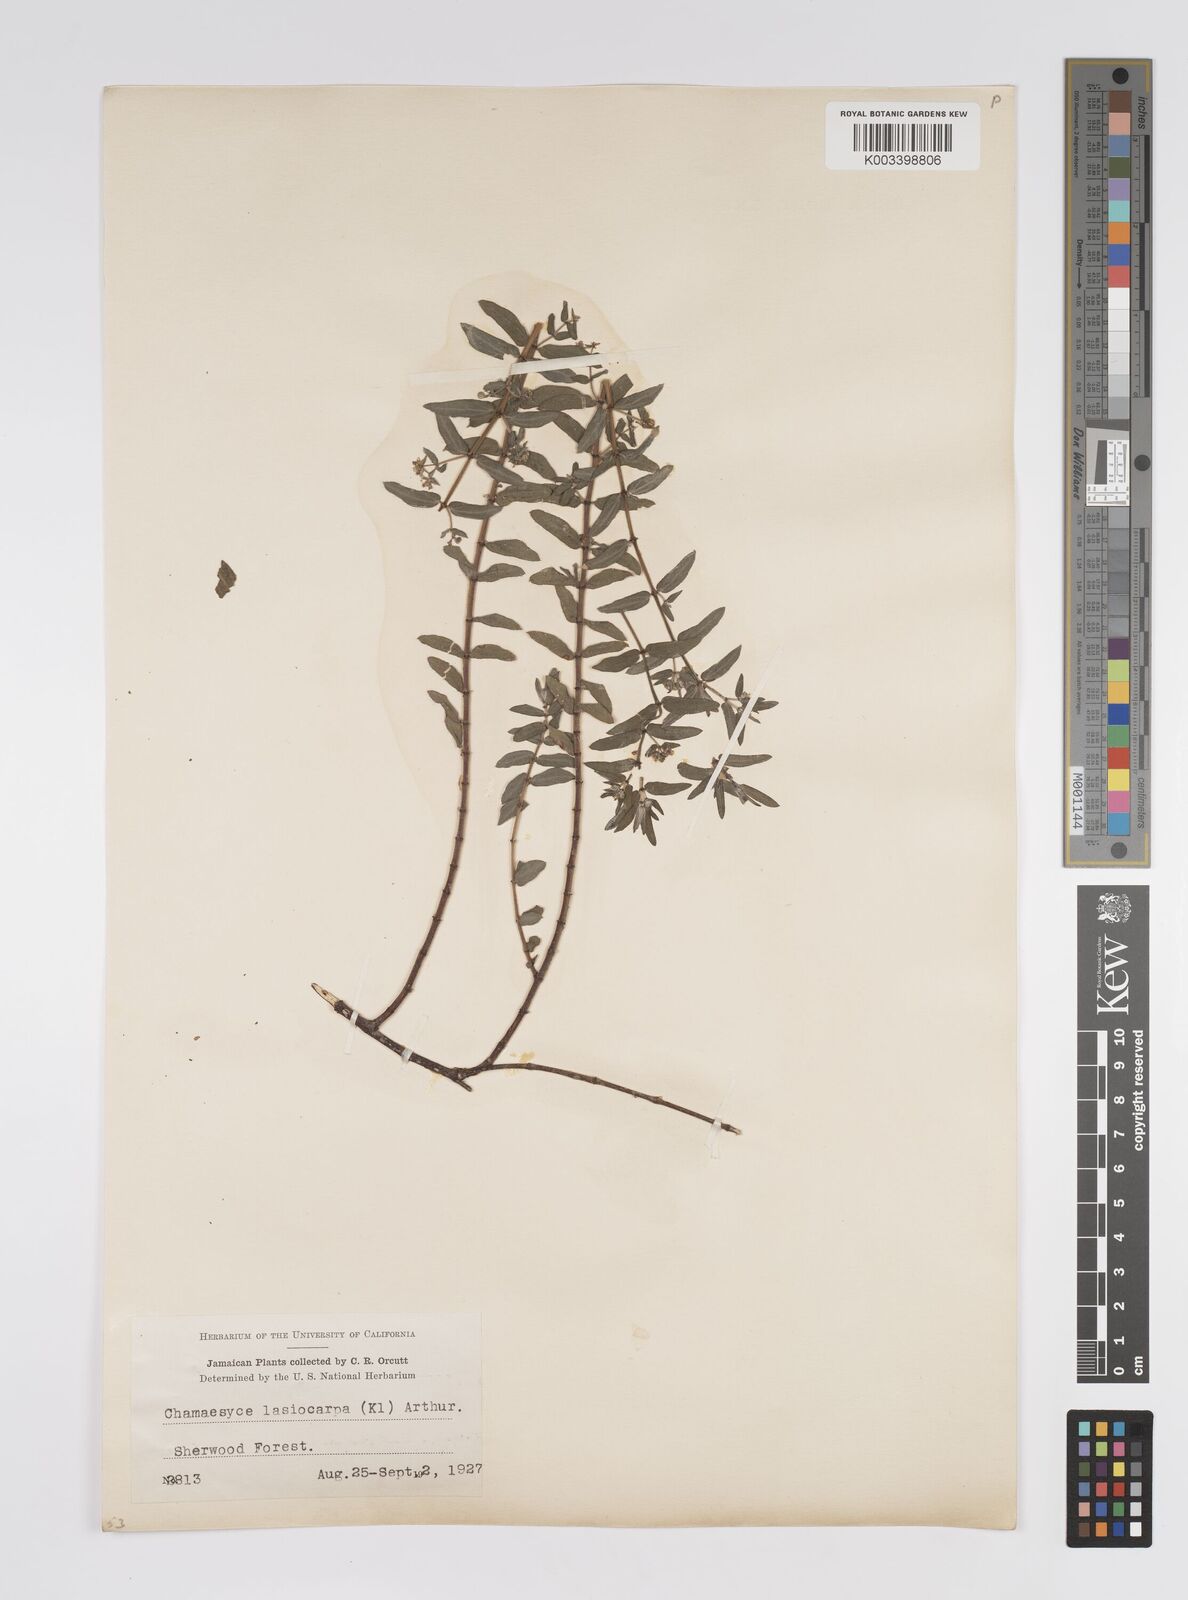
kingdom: Plantae
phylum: Tracheophyta
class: Magnoliopsida
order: Malpighiales
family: Euphorbiaceae
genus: Euphorbia
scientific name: Euphorbia lasiocarpa
